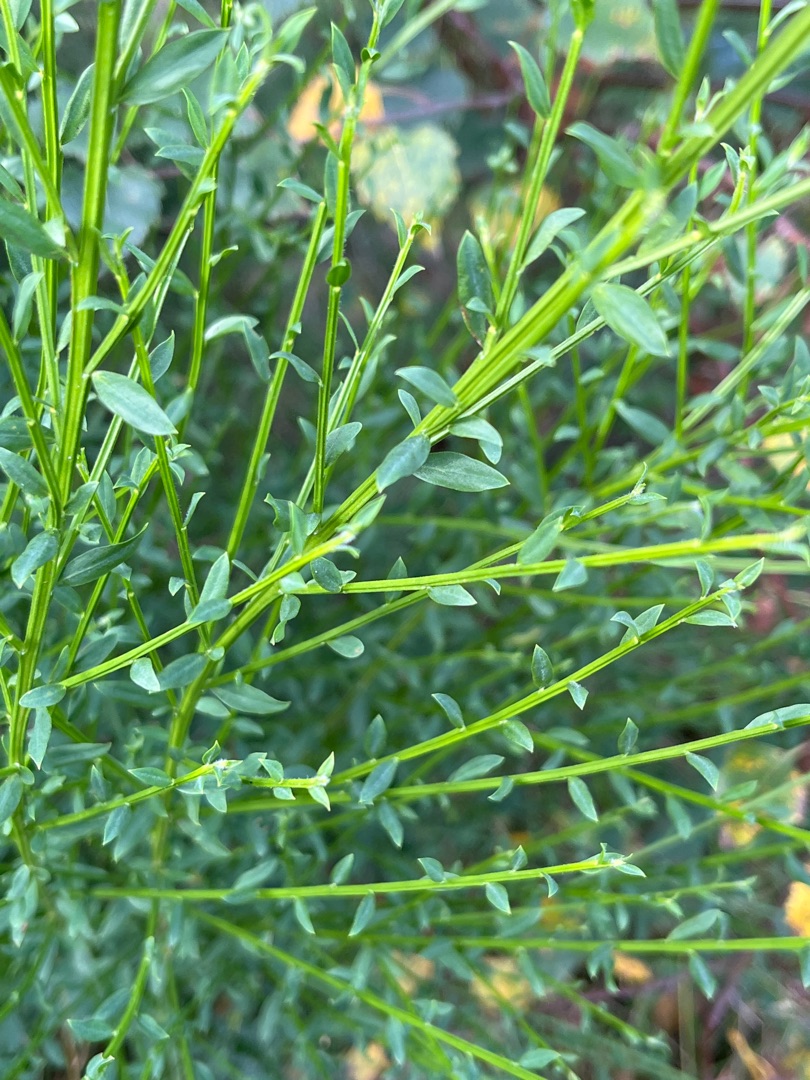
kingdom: Plantae
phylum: Tracheophyta
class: Magnoliopsida
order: Fabales
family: Fabaceae
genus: Cytisus
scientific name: Cytisus scoparius
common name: Almindelig gyvel
